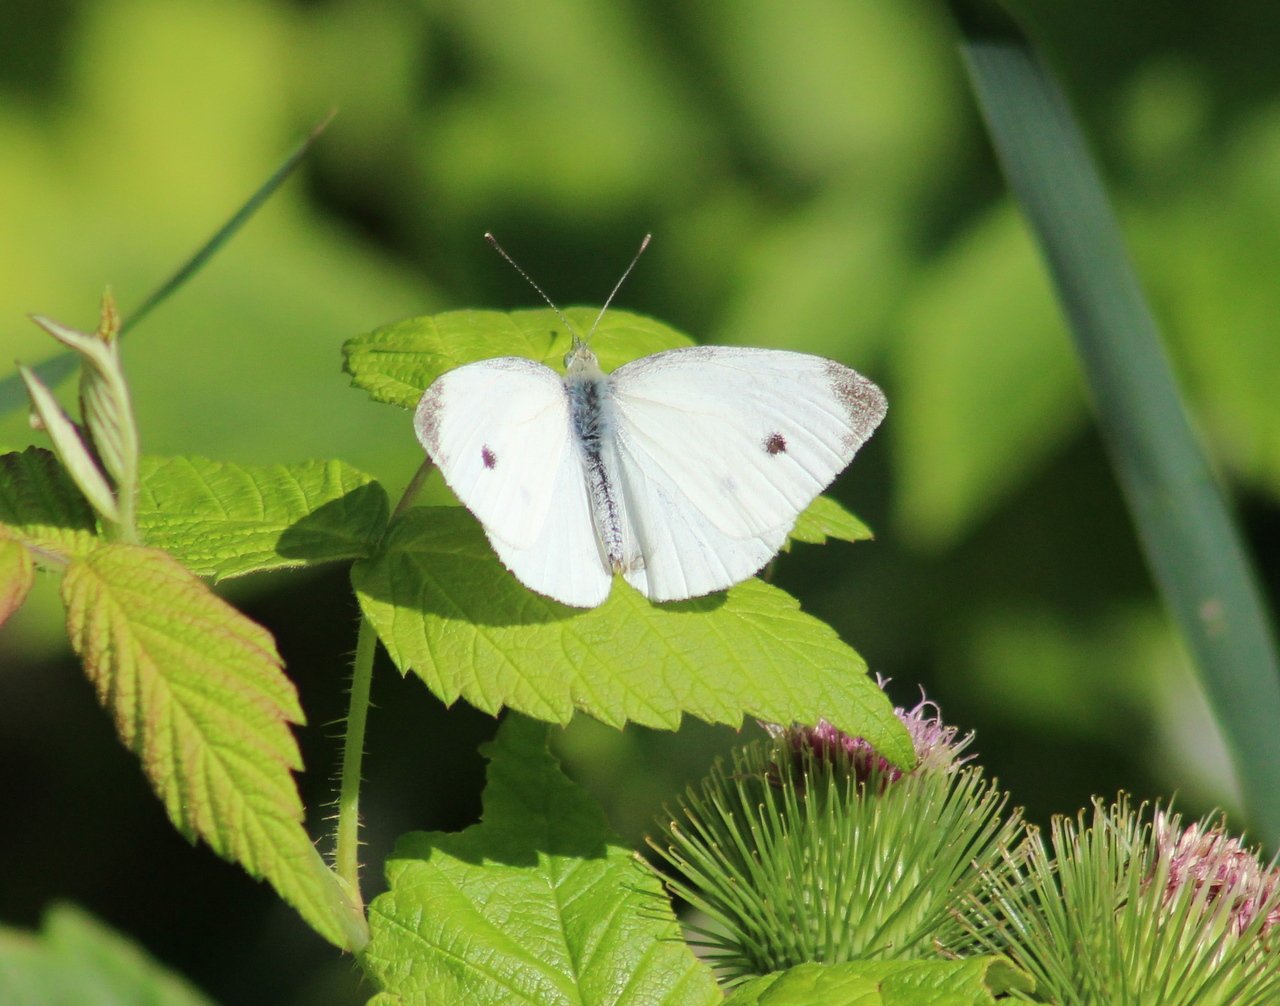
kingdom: Animalia
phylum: Arthropoda
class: Insecta
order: Lepidoptera
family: Pieridae
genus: Pieris
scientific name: Pieris rapae
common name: Cabbage White
